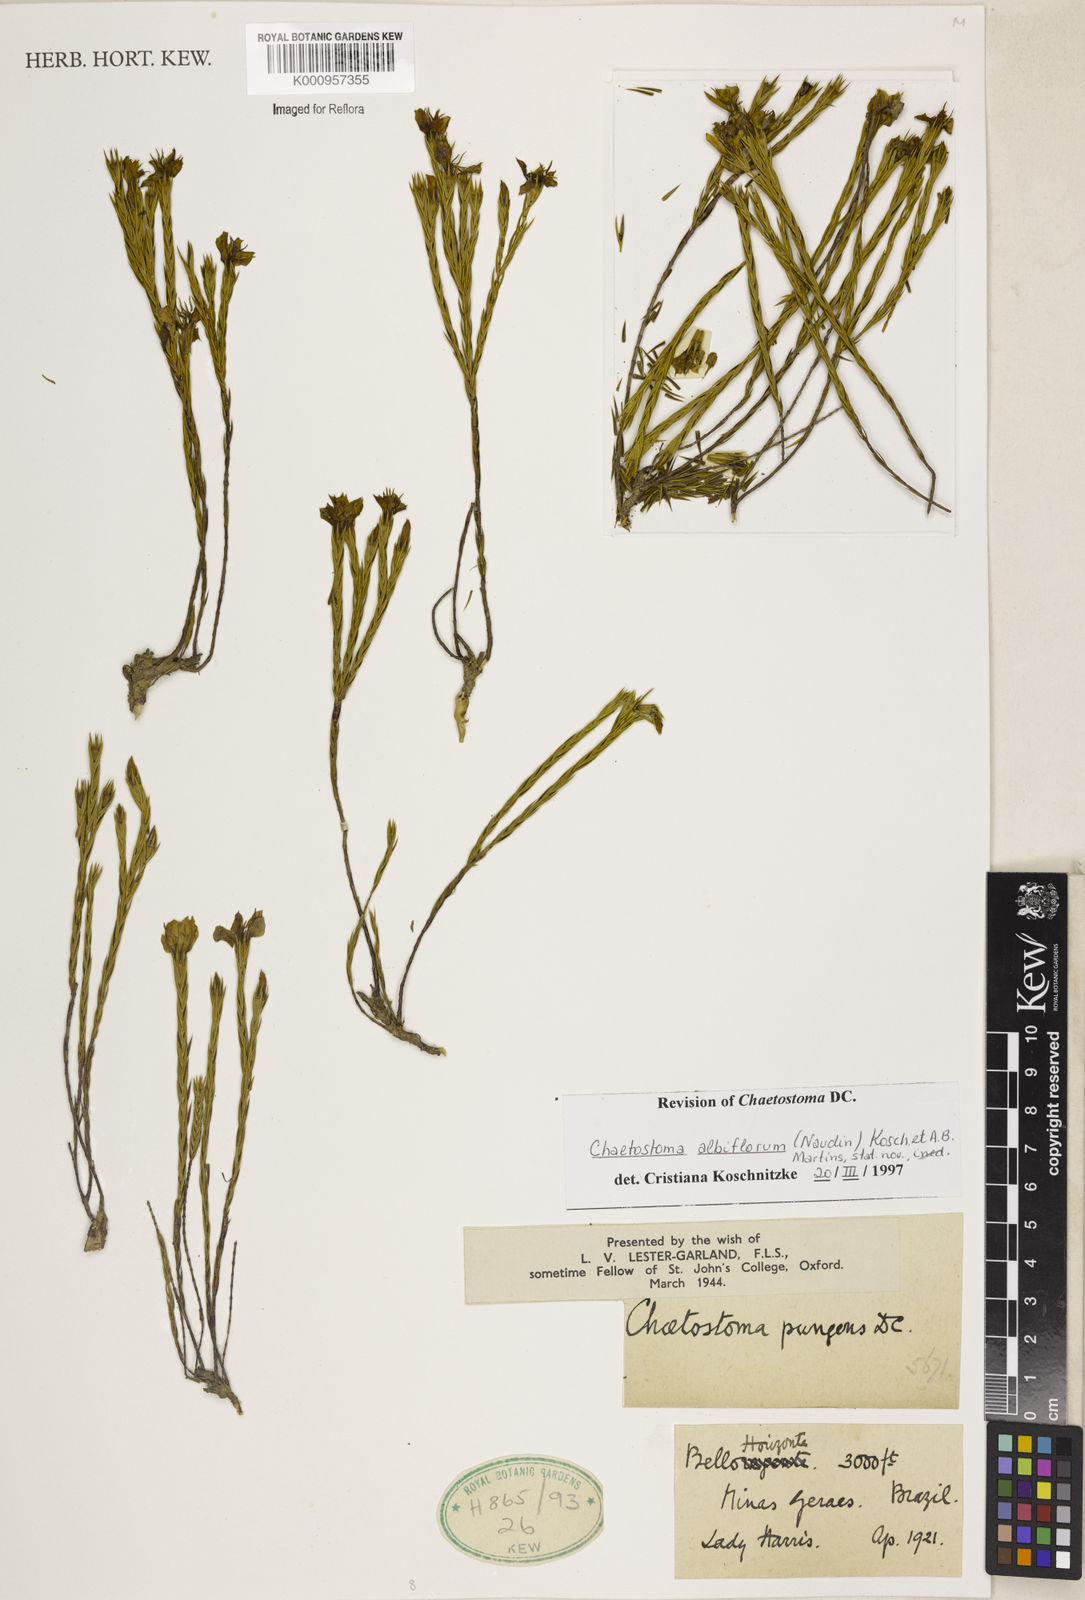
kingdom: Plantae
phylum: Tracheophyta
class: Magnoliopsida
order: Myrtales
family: Melastomataceae
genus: Microlicia
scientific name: Microlicia albiflora
